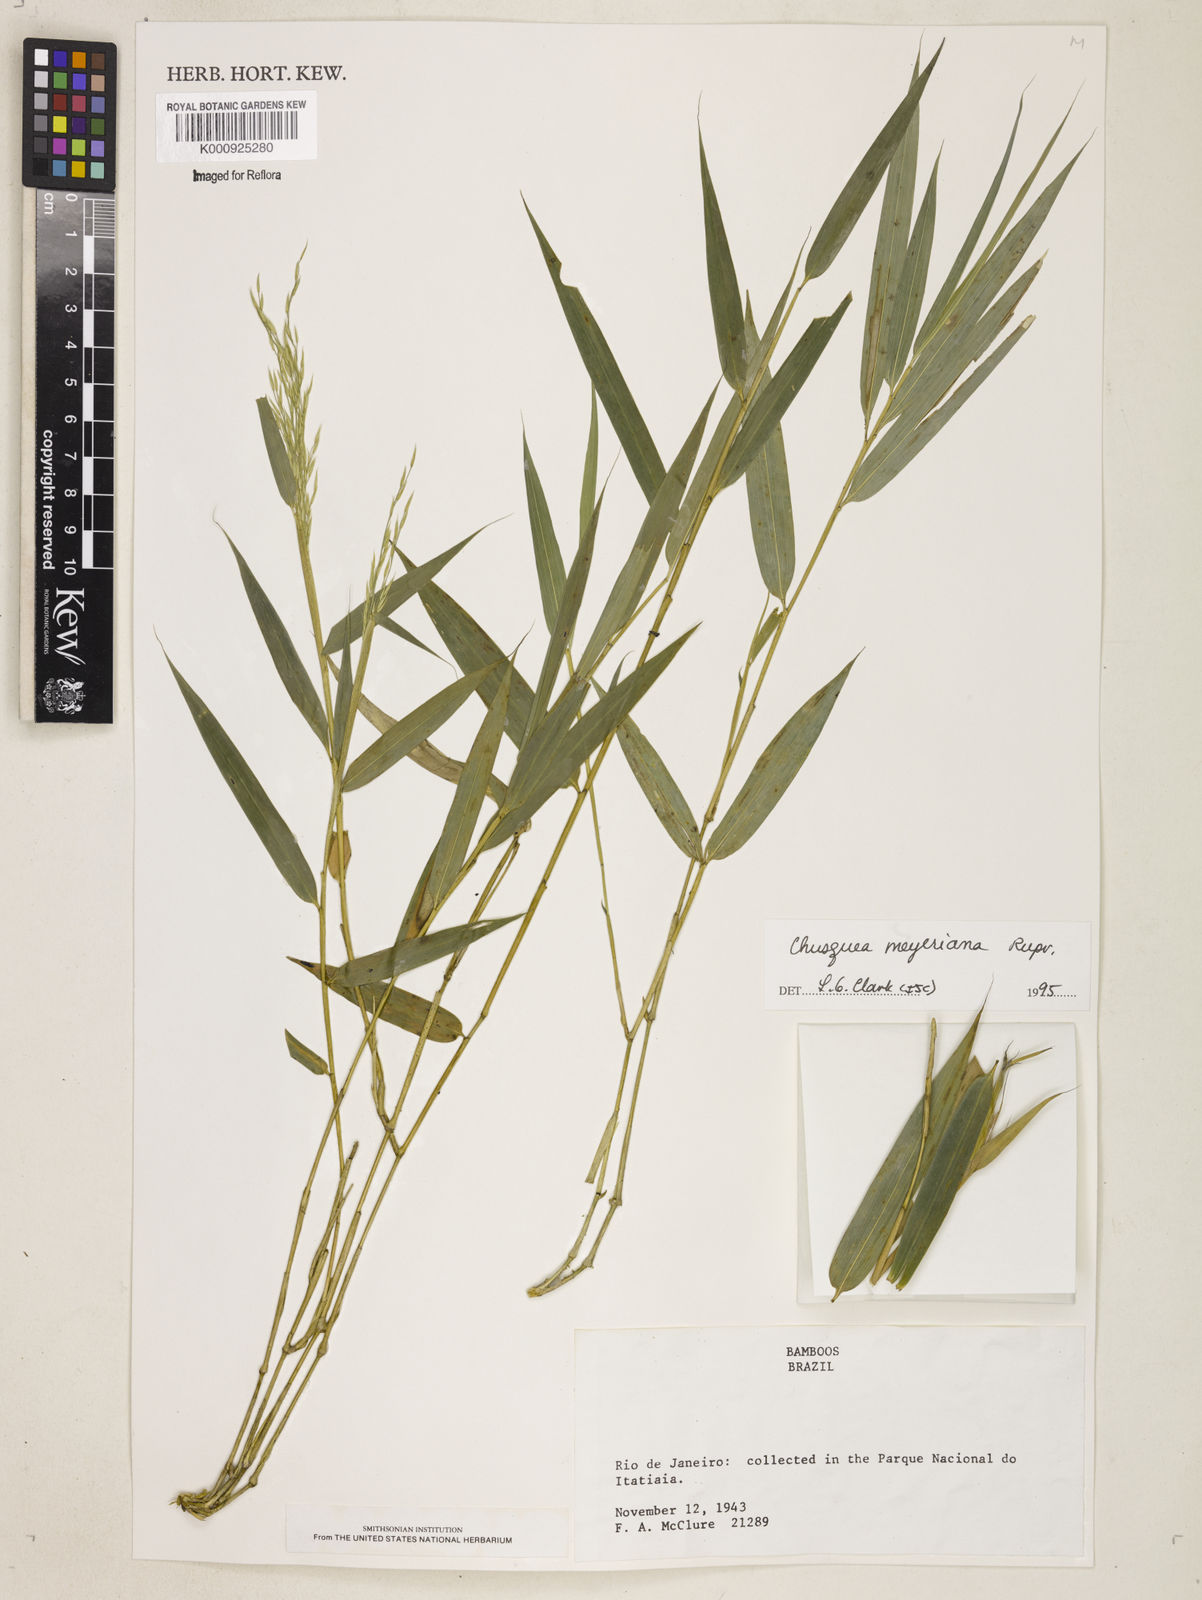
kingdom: Plantae
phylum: Tracheophyta
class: Liliopsida
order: Poales
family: Poaceae
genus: Chusquea
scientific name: Chusquea
